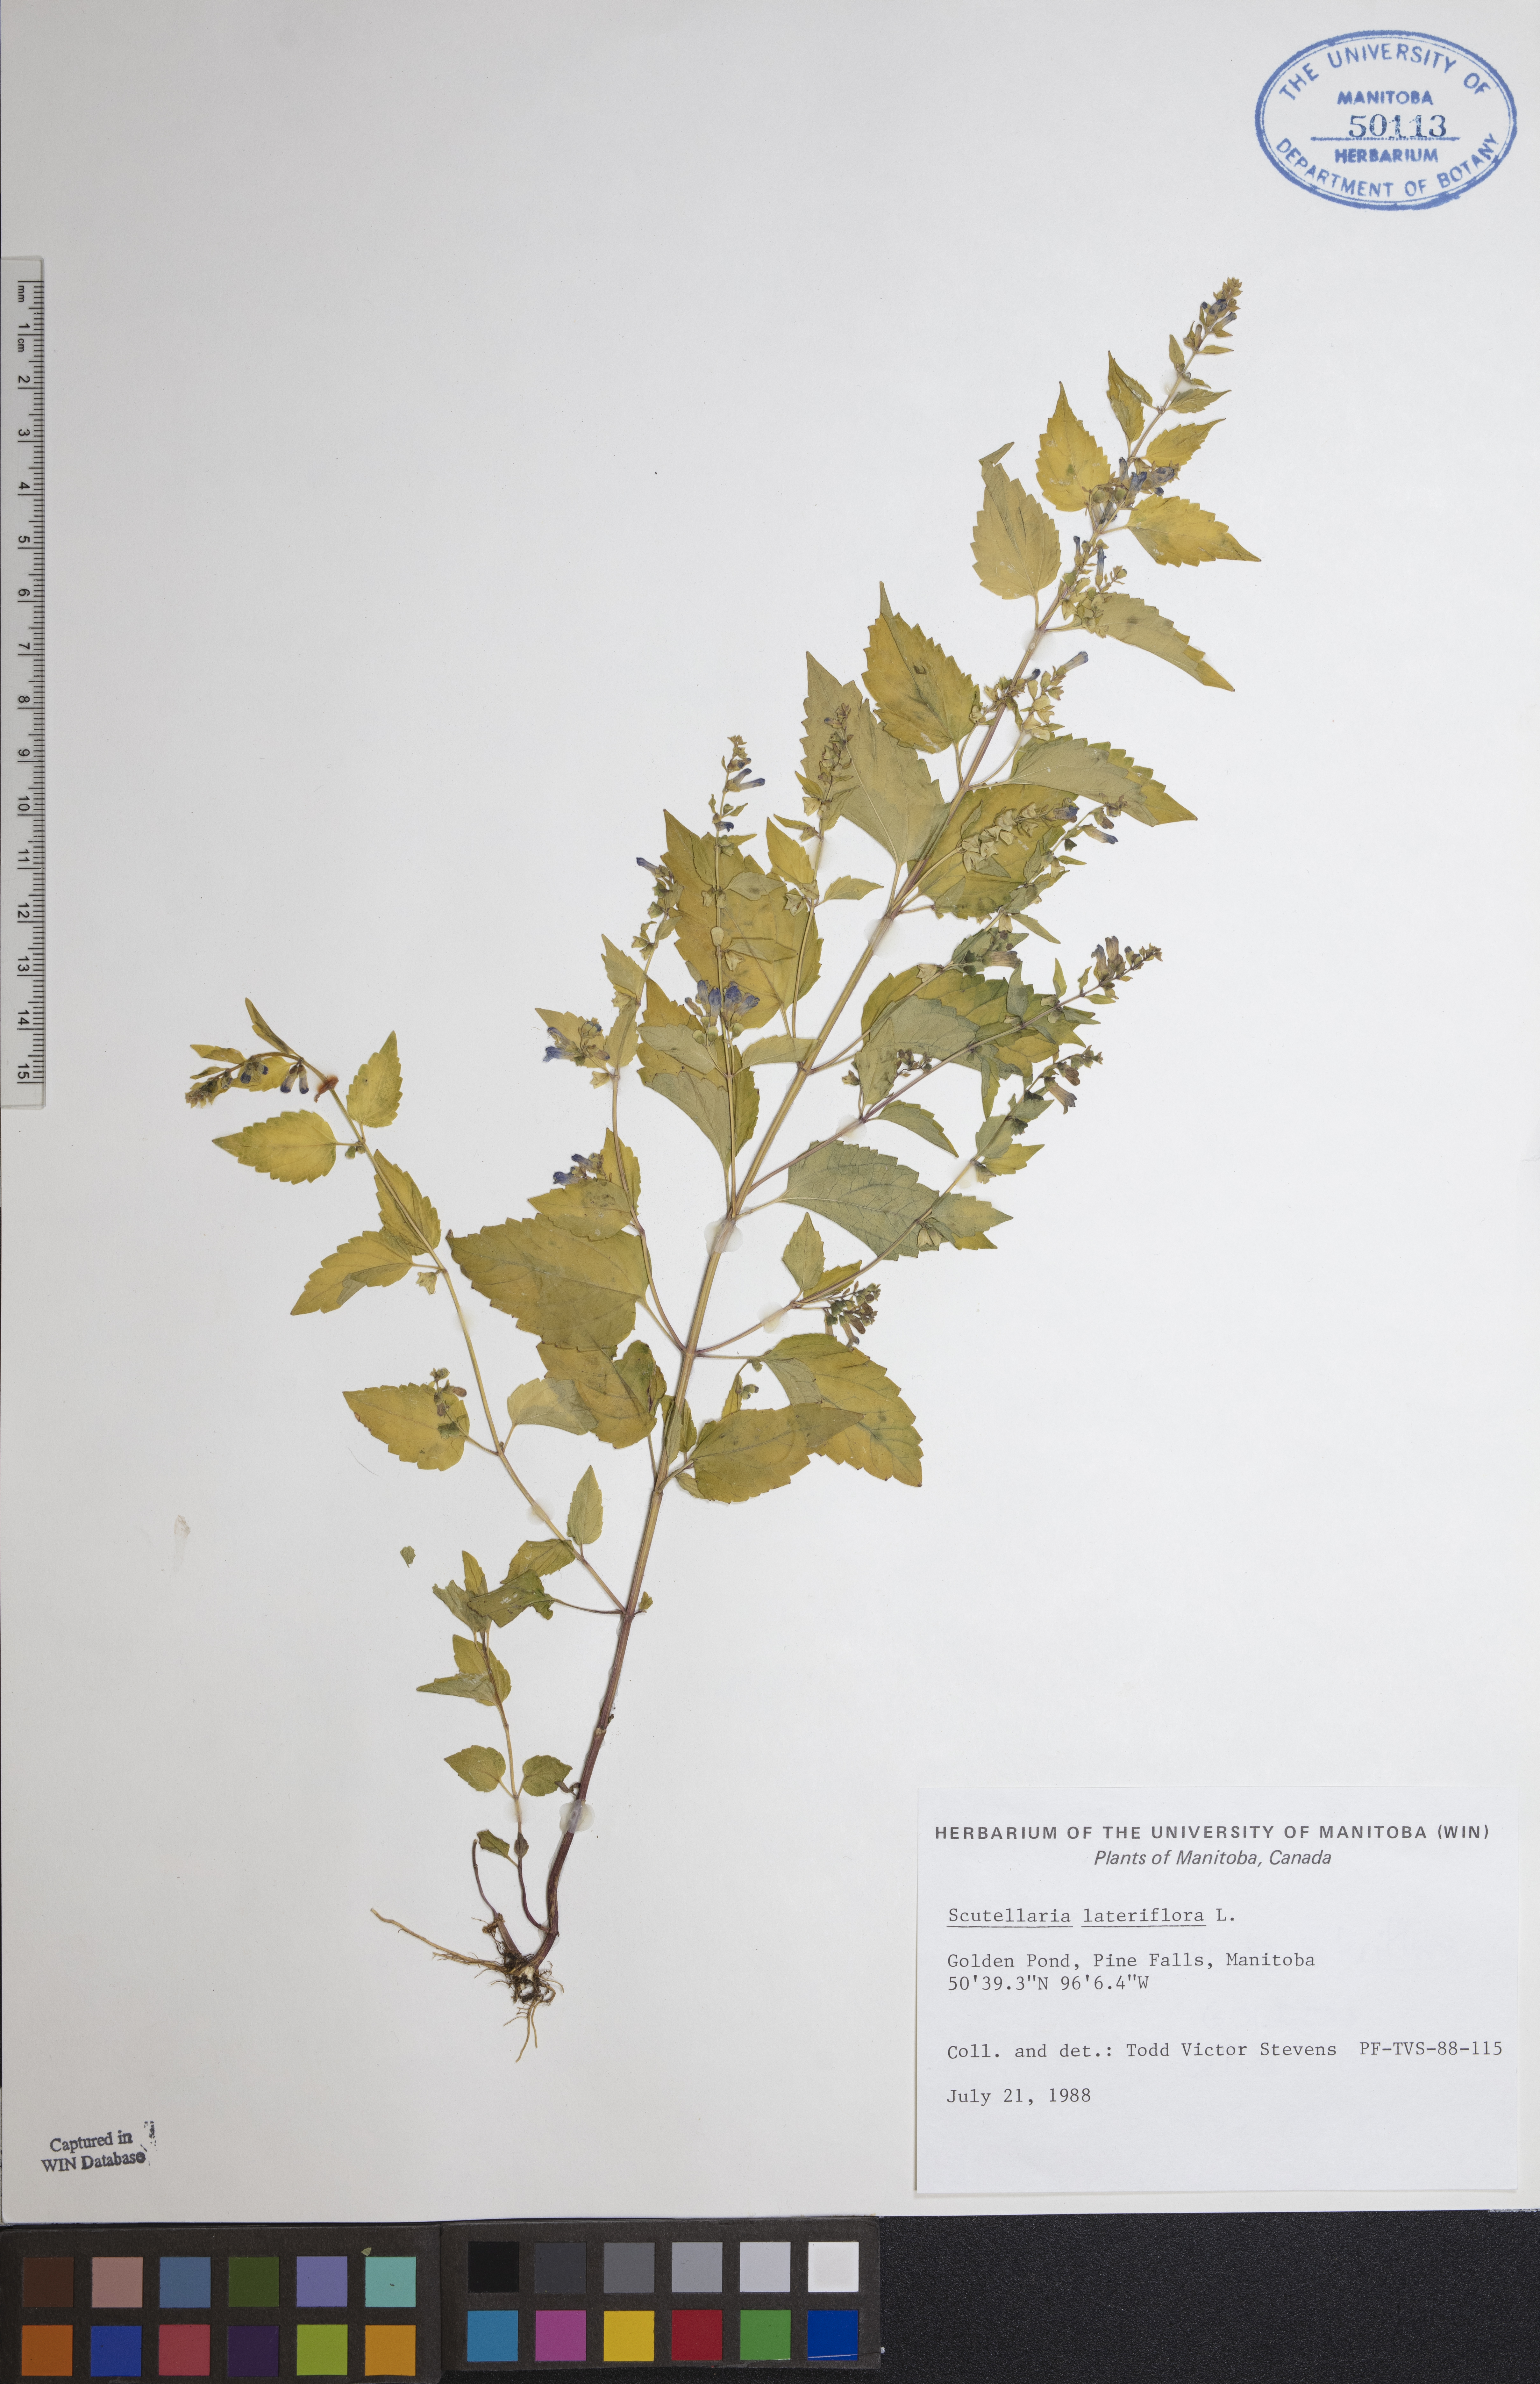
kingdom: Plantae
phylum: Tracheophyta
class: Magnoliopsida
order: Lamiales
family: Lamiaceae
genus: Scutellaria
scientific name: Scutellaria lateriflora
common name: Blue skullcap
